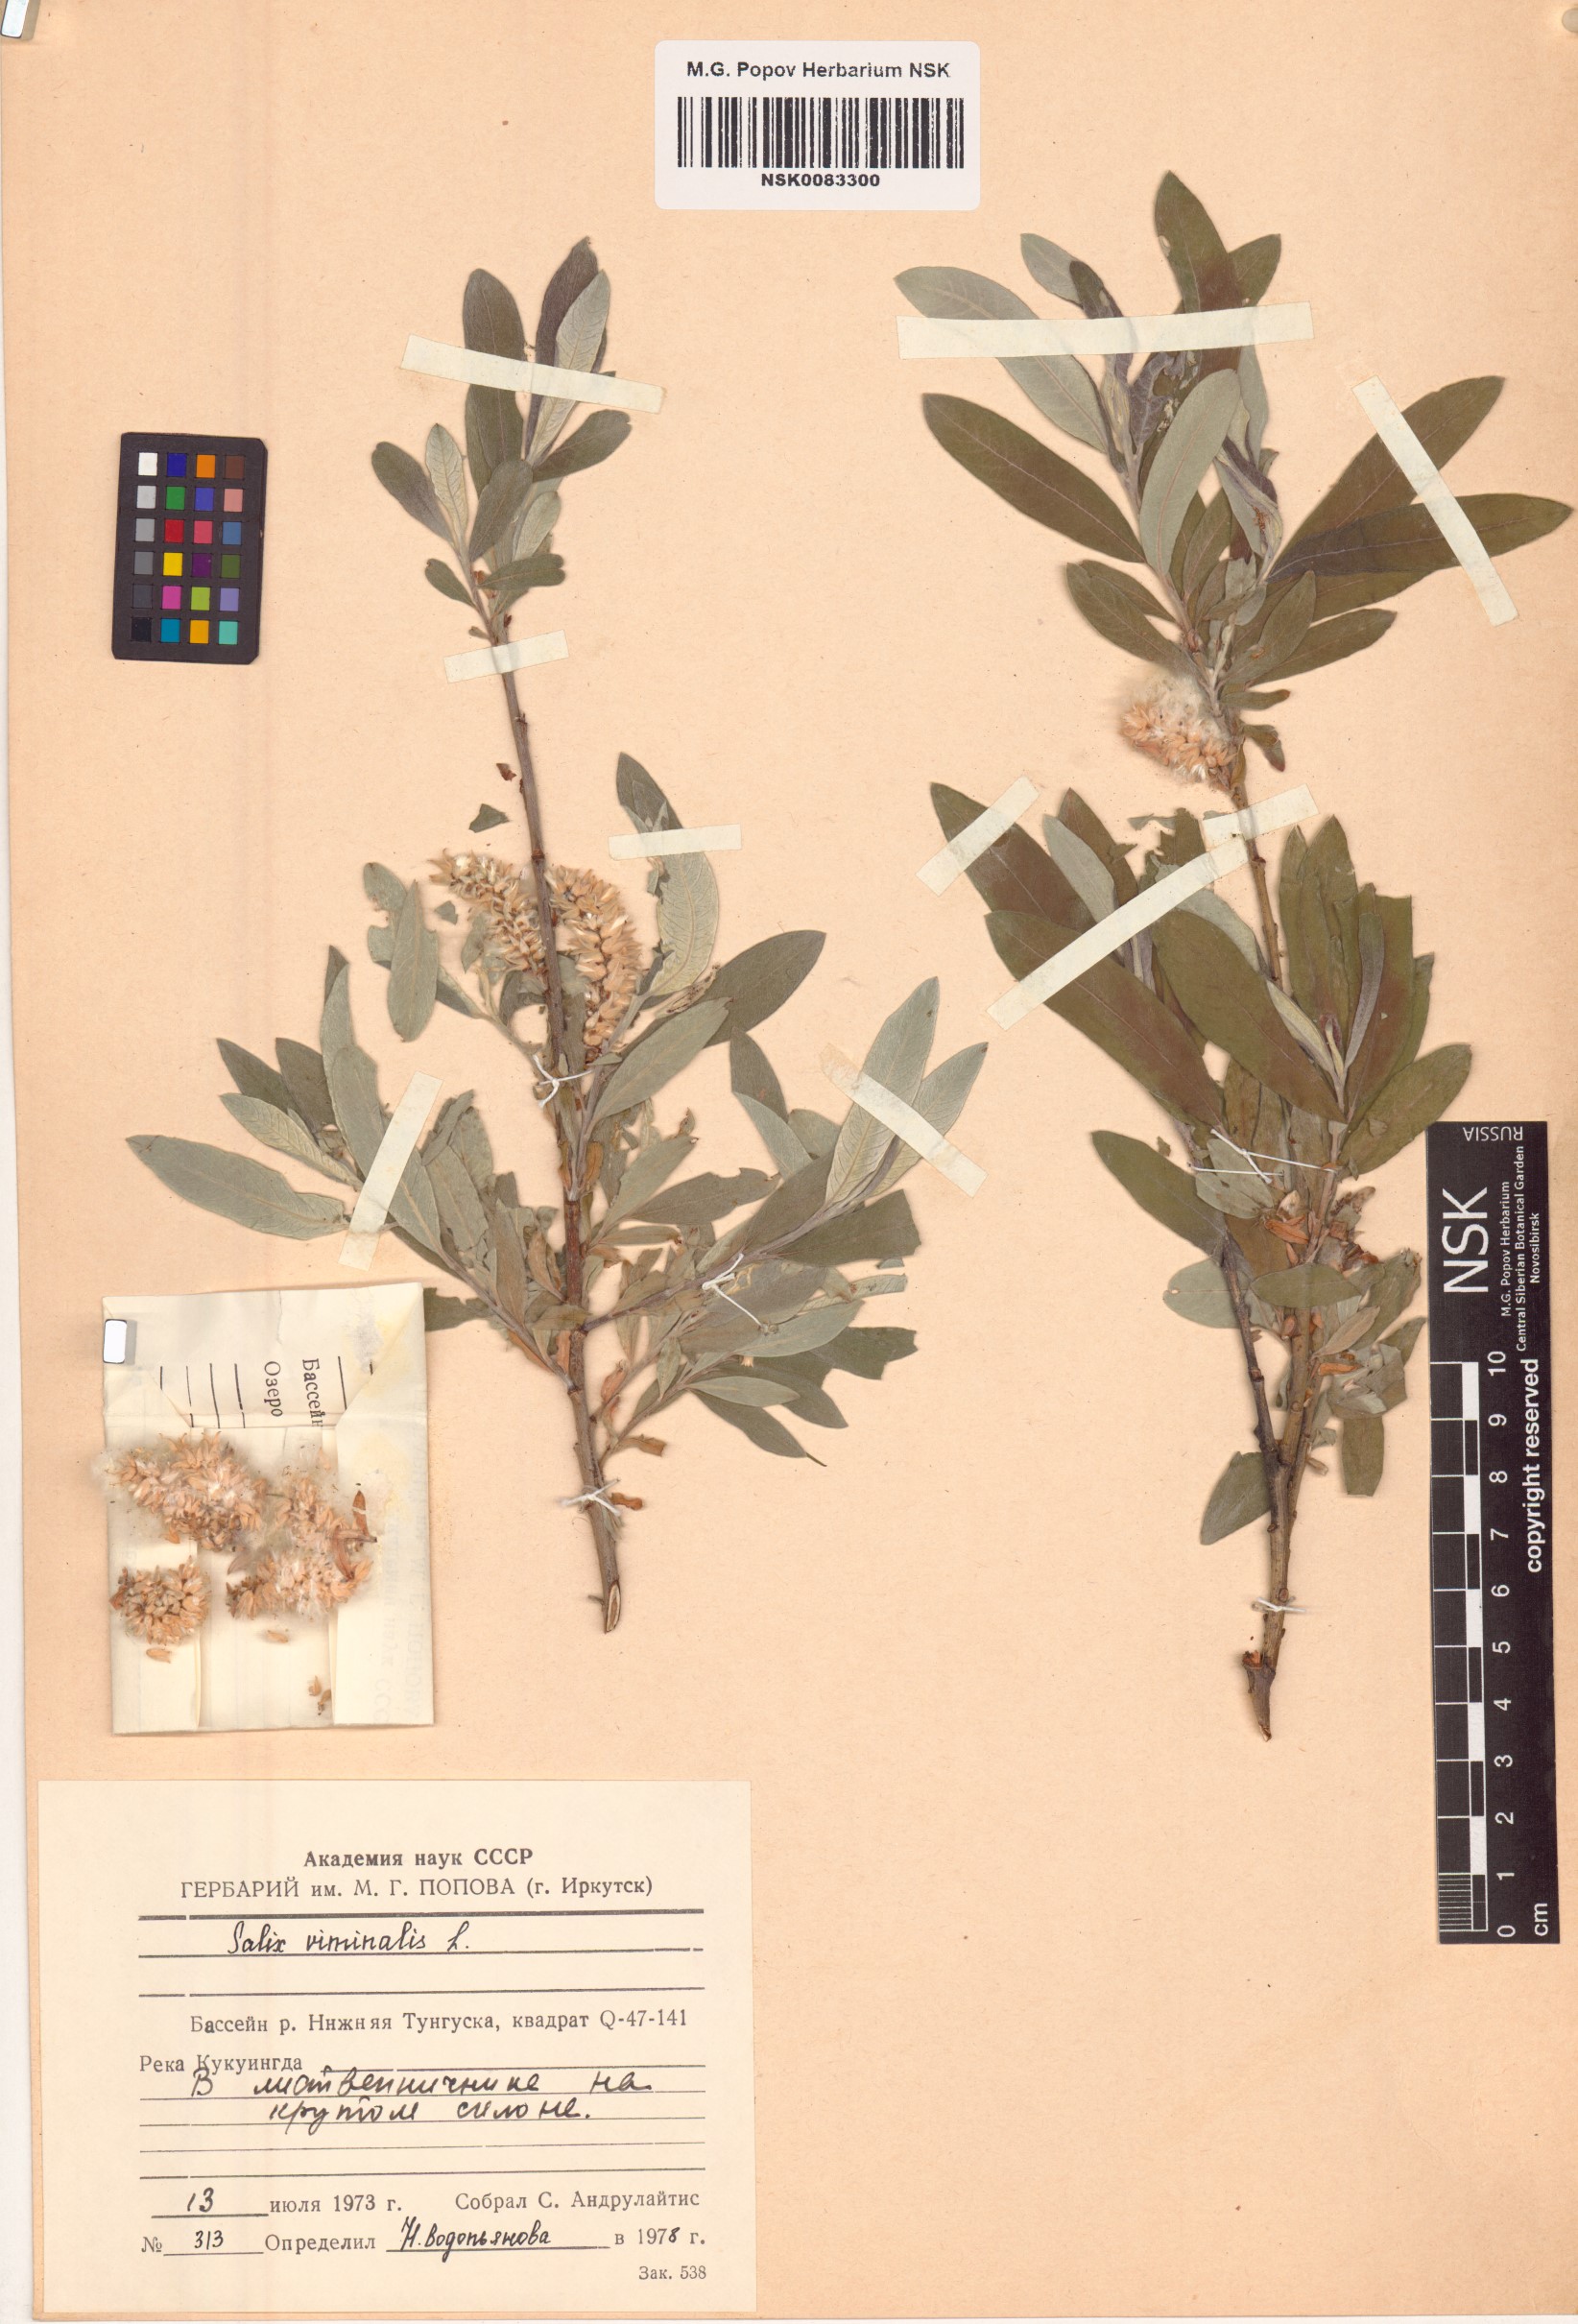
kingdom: Plantae
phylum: Tracheophyta
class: Magnoliopsida
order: Malpighiales
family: Salicaceae
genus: Salix
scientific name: Salix viminalis
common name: Osier
